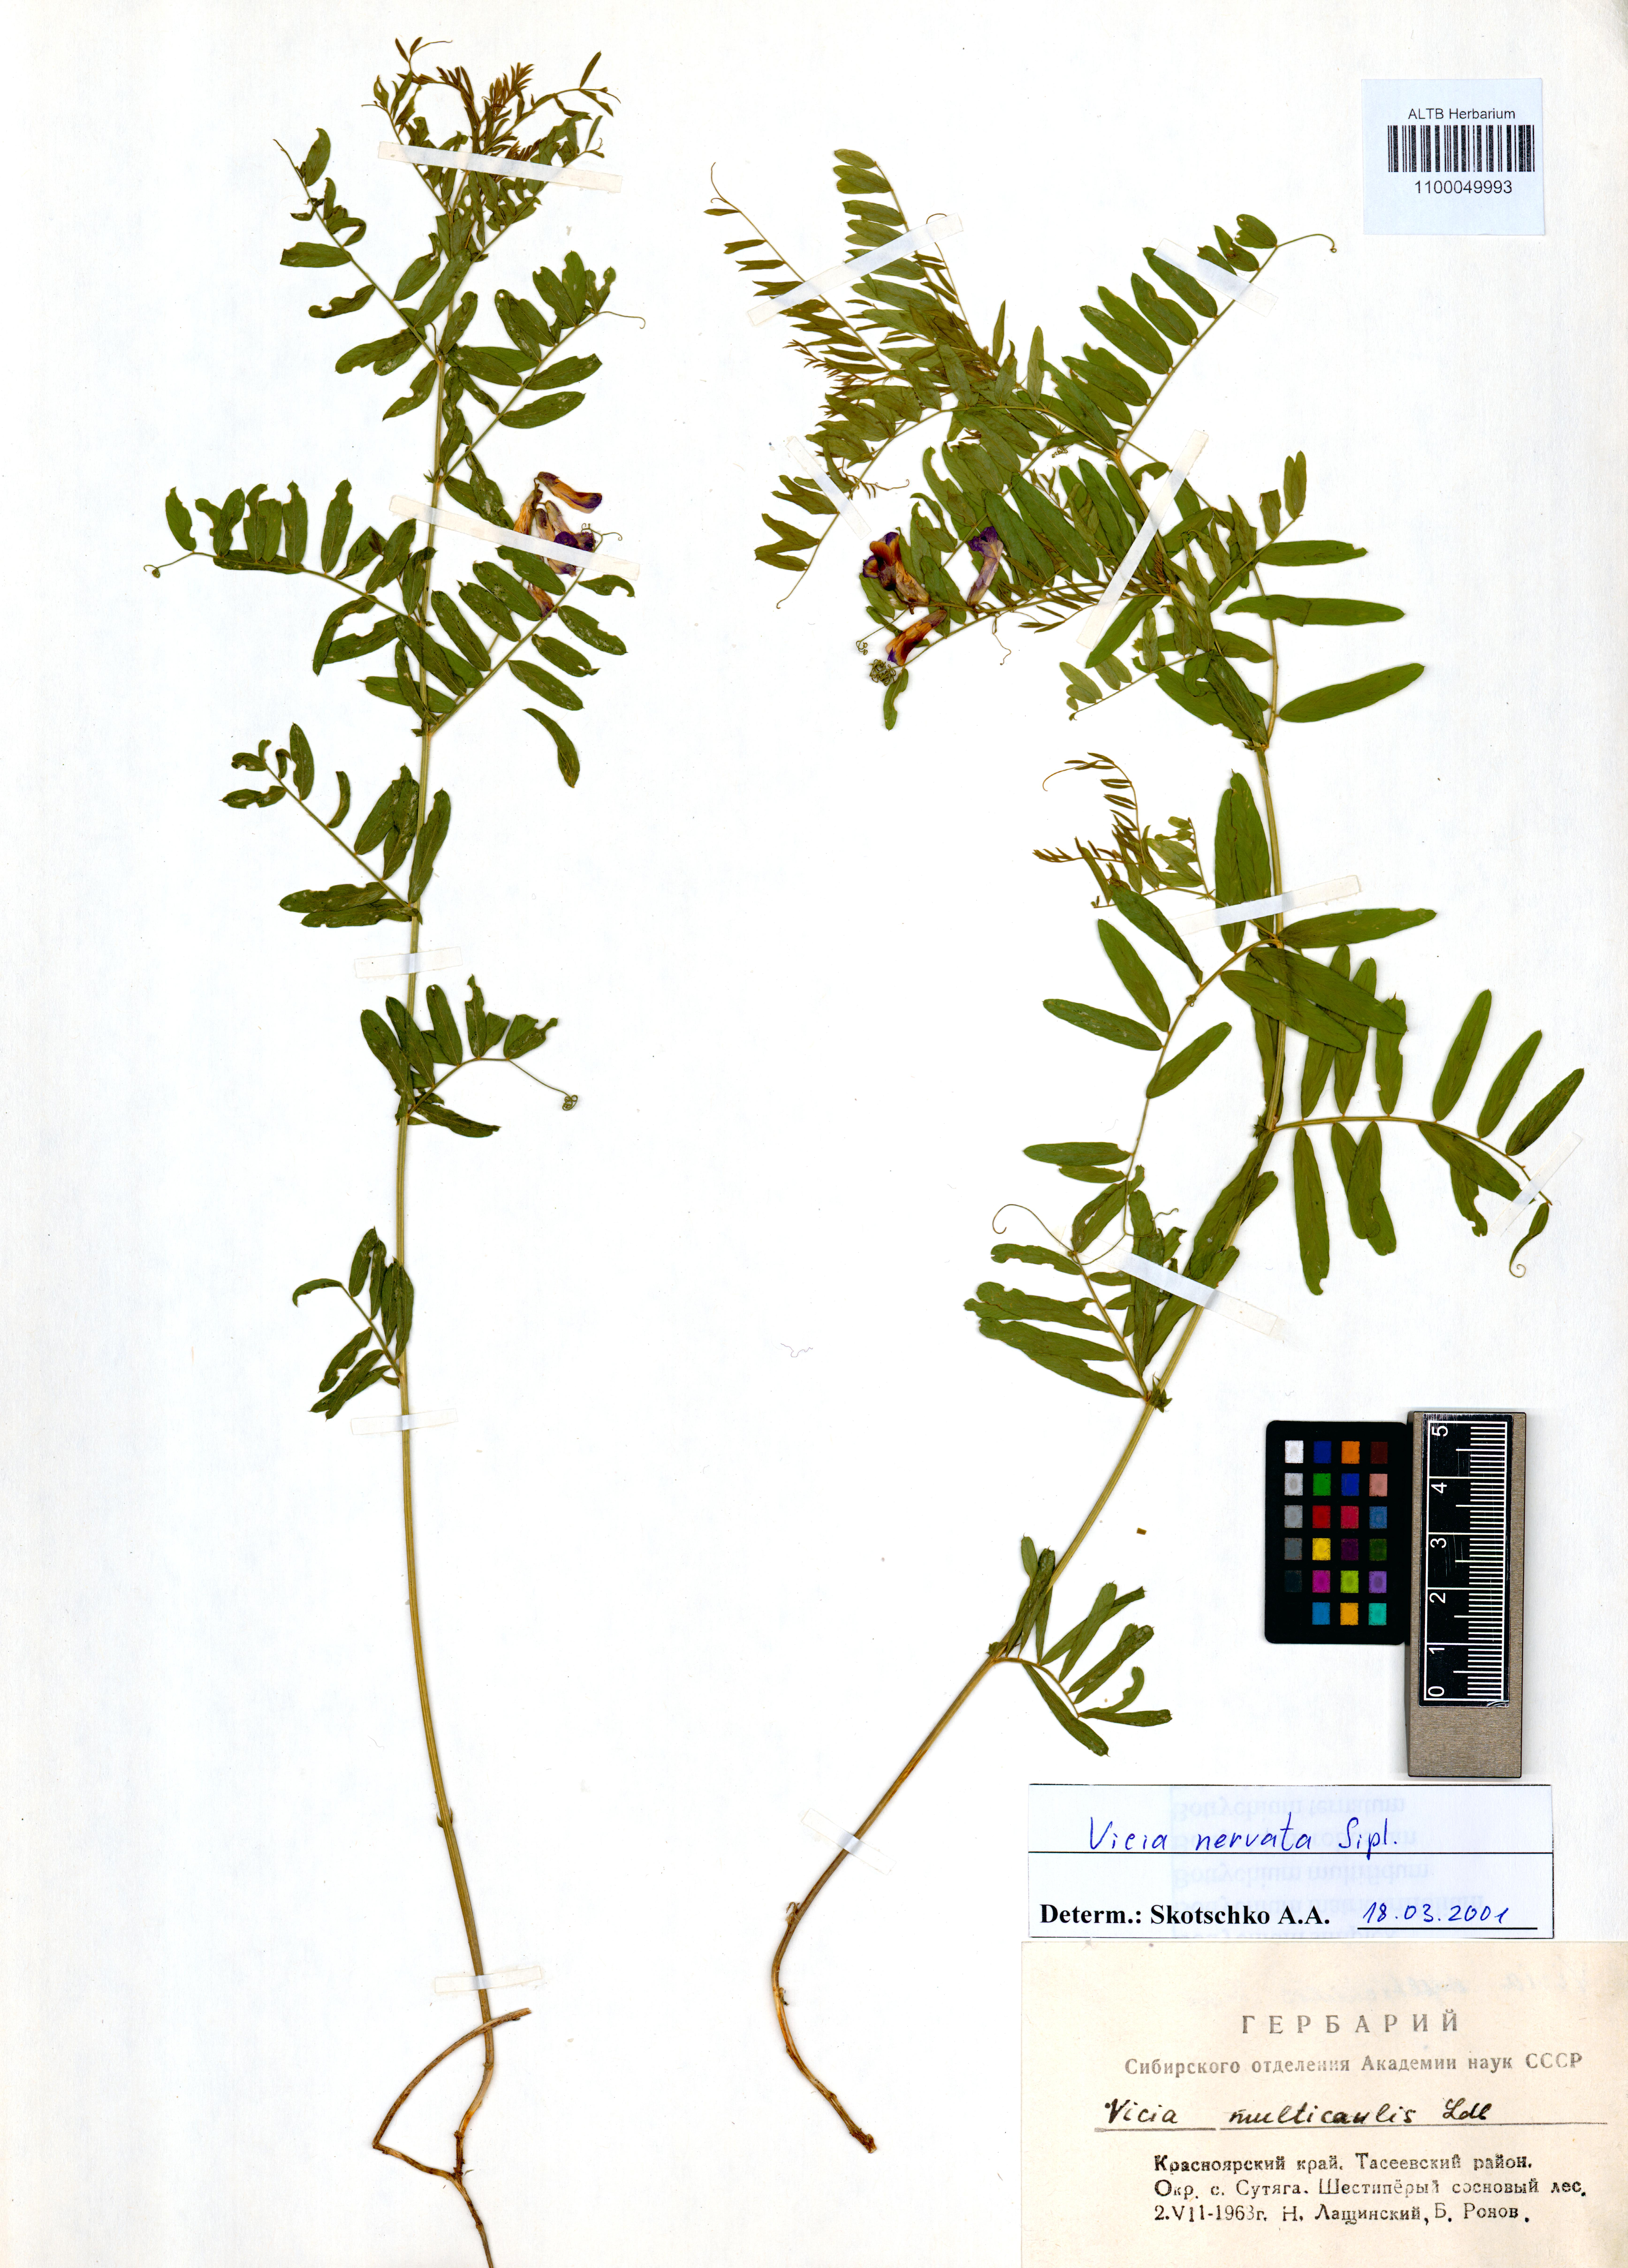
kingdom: Plantae
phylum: Tracheophyta
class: Magnoliopsida
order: Fabales
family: Fabaceae
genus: Vicia
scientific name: Vicia multicaulis
